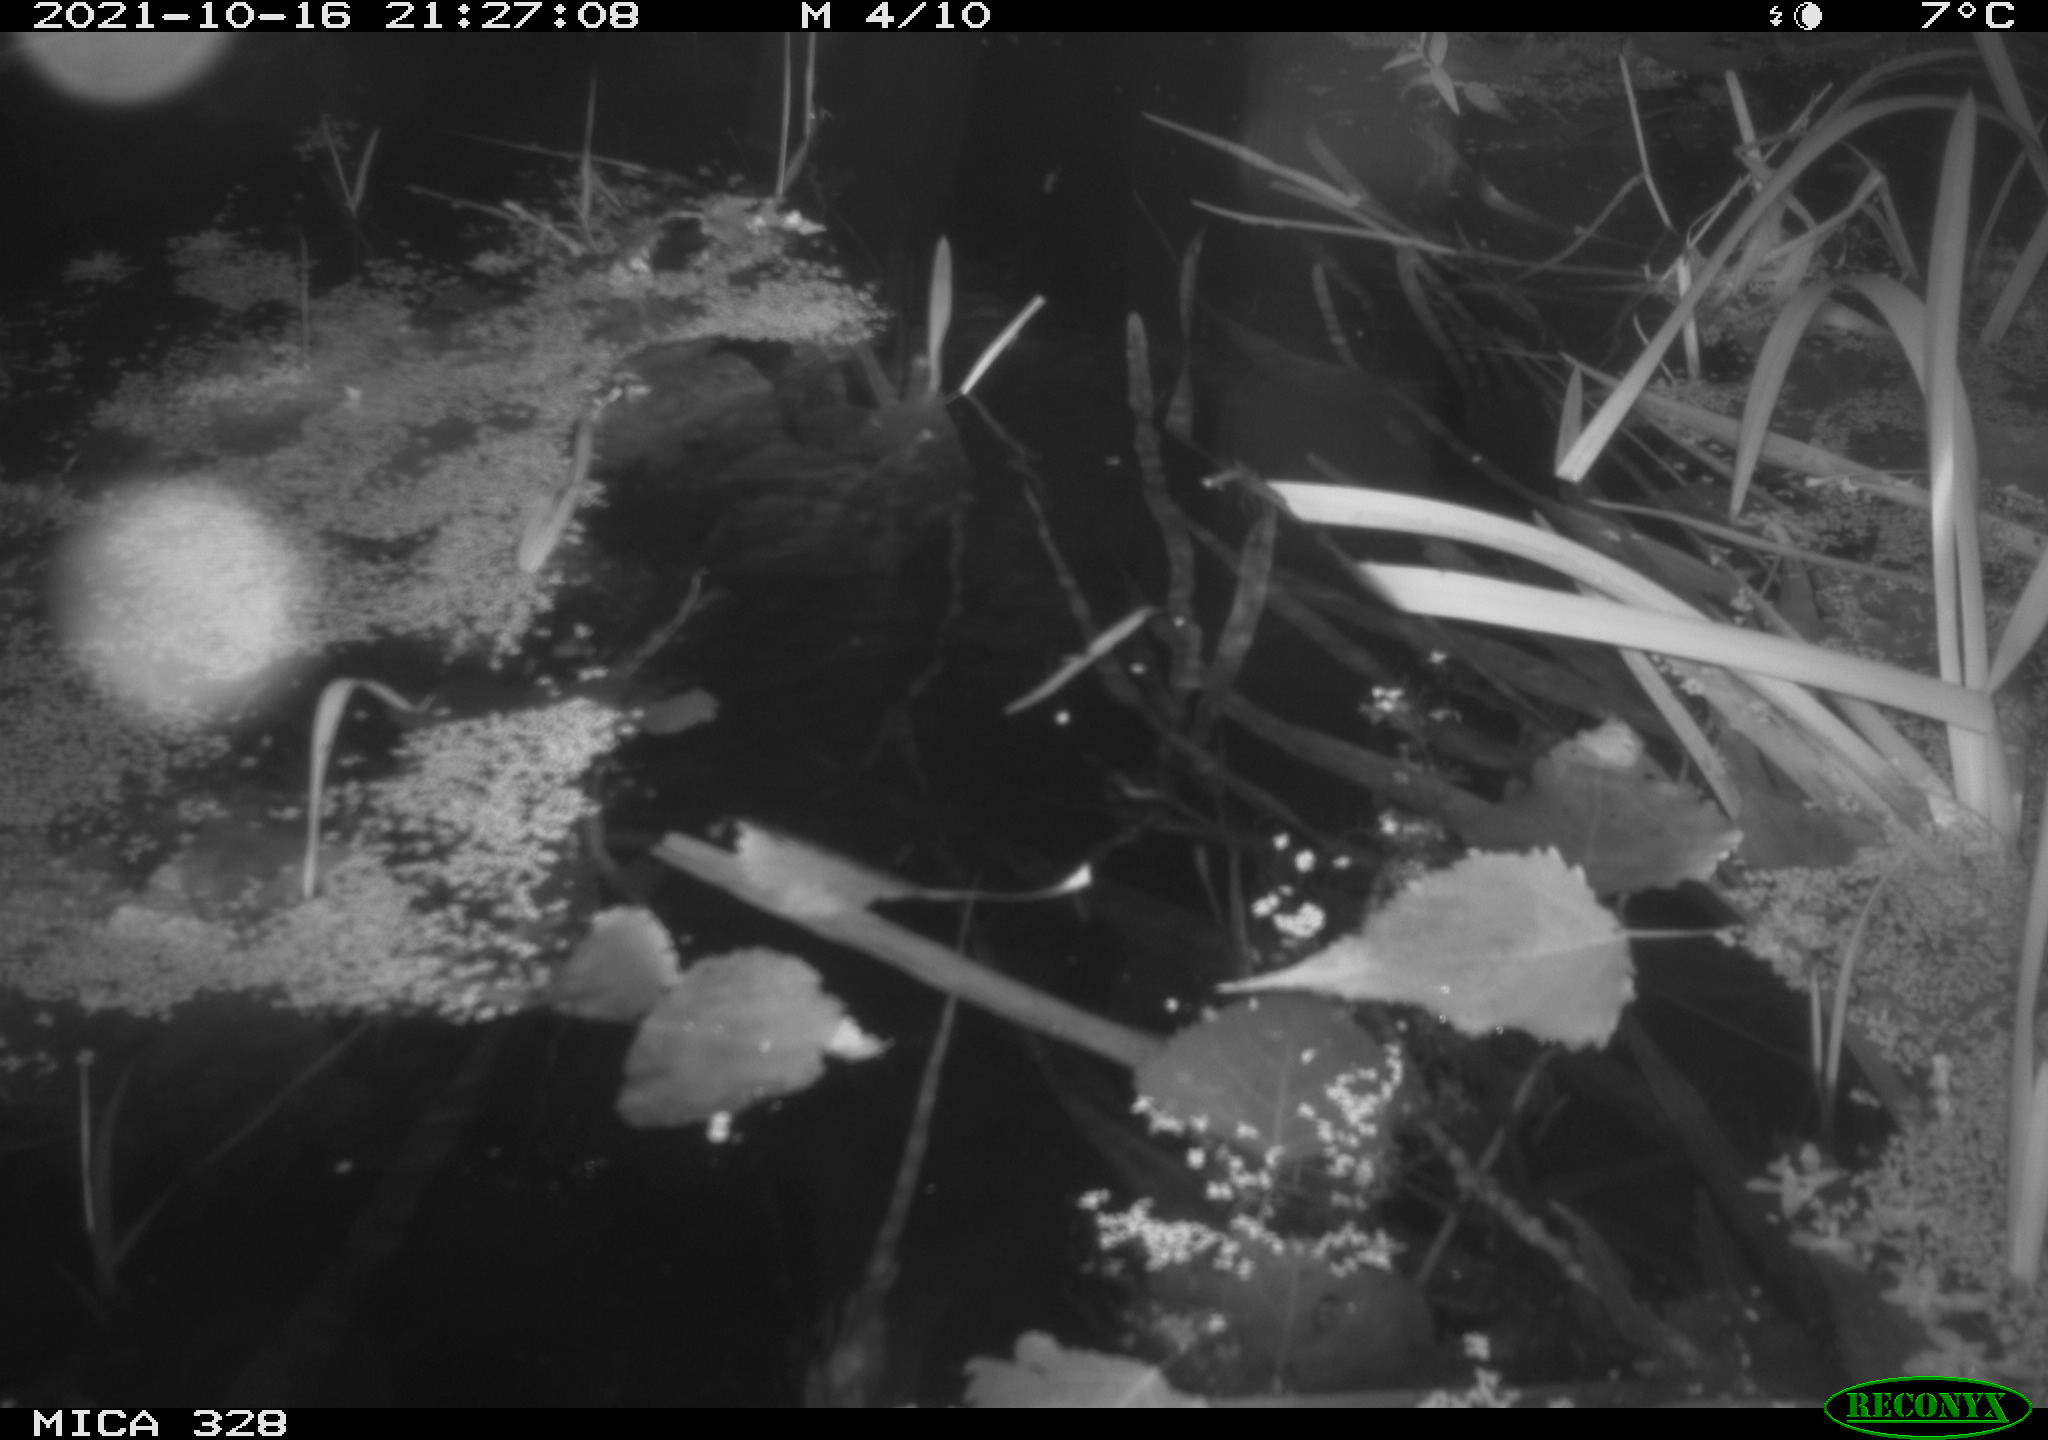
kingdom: Animalia
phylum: Chordata
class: Mammalia
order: Rodentia
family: Cricetidae
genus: Ondatra
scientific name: Ondatra zibethicus
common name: Muskrat
